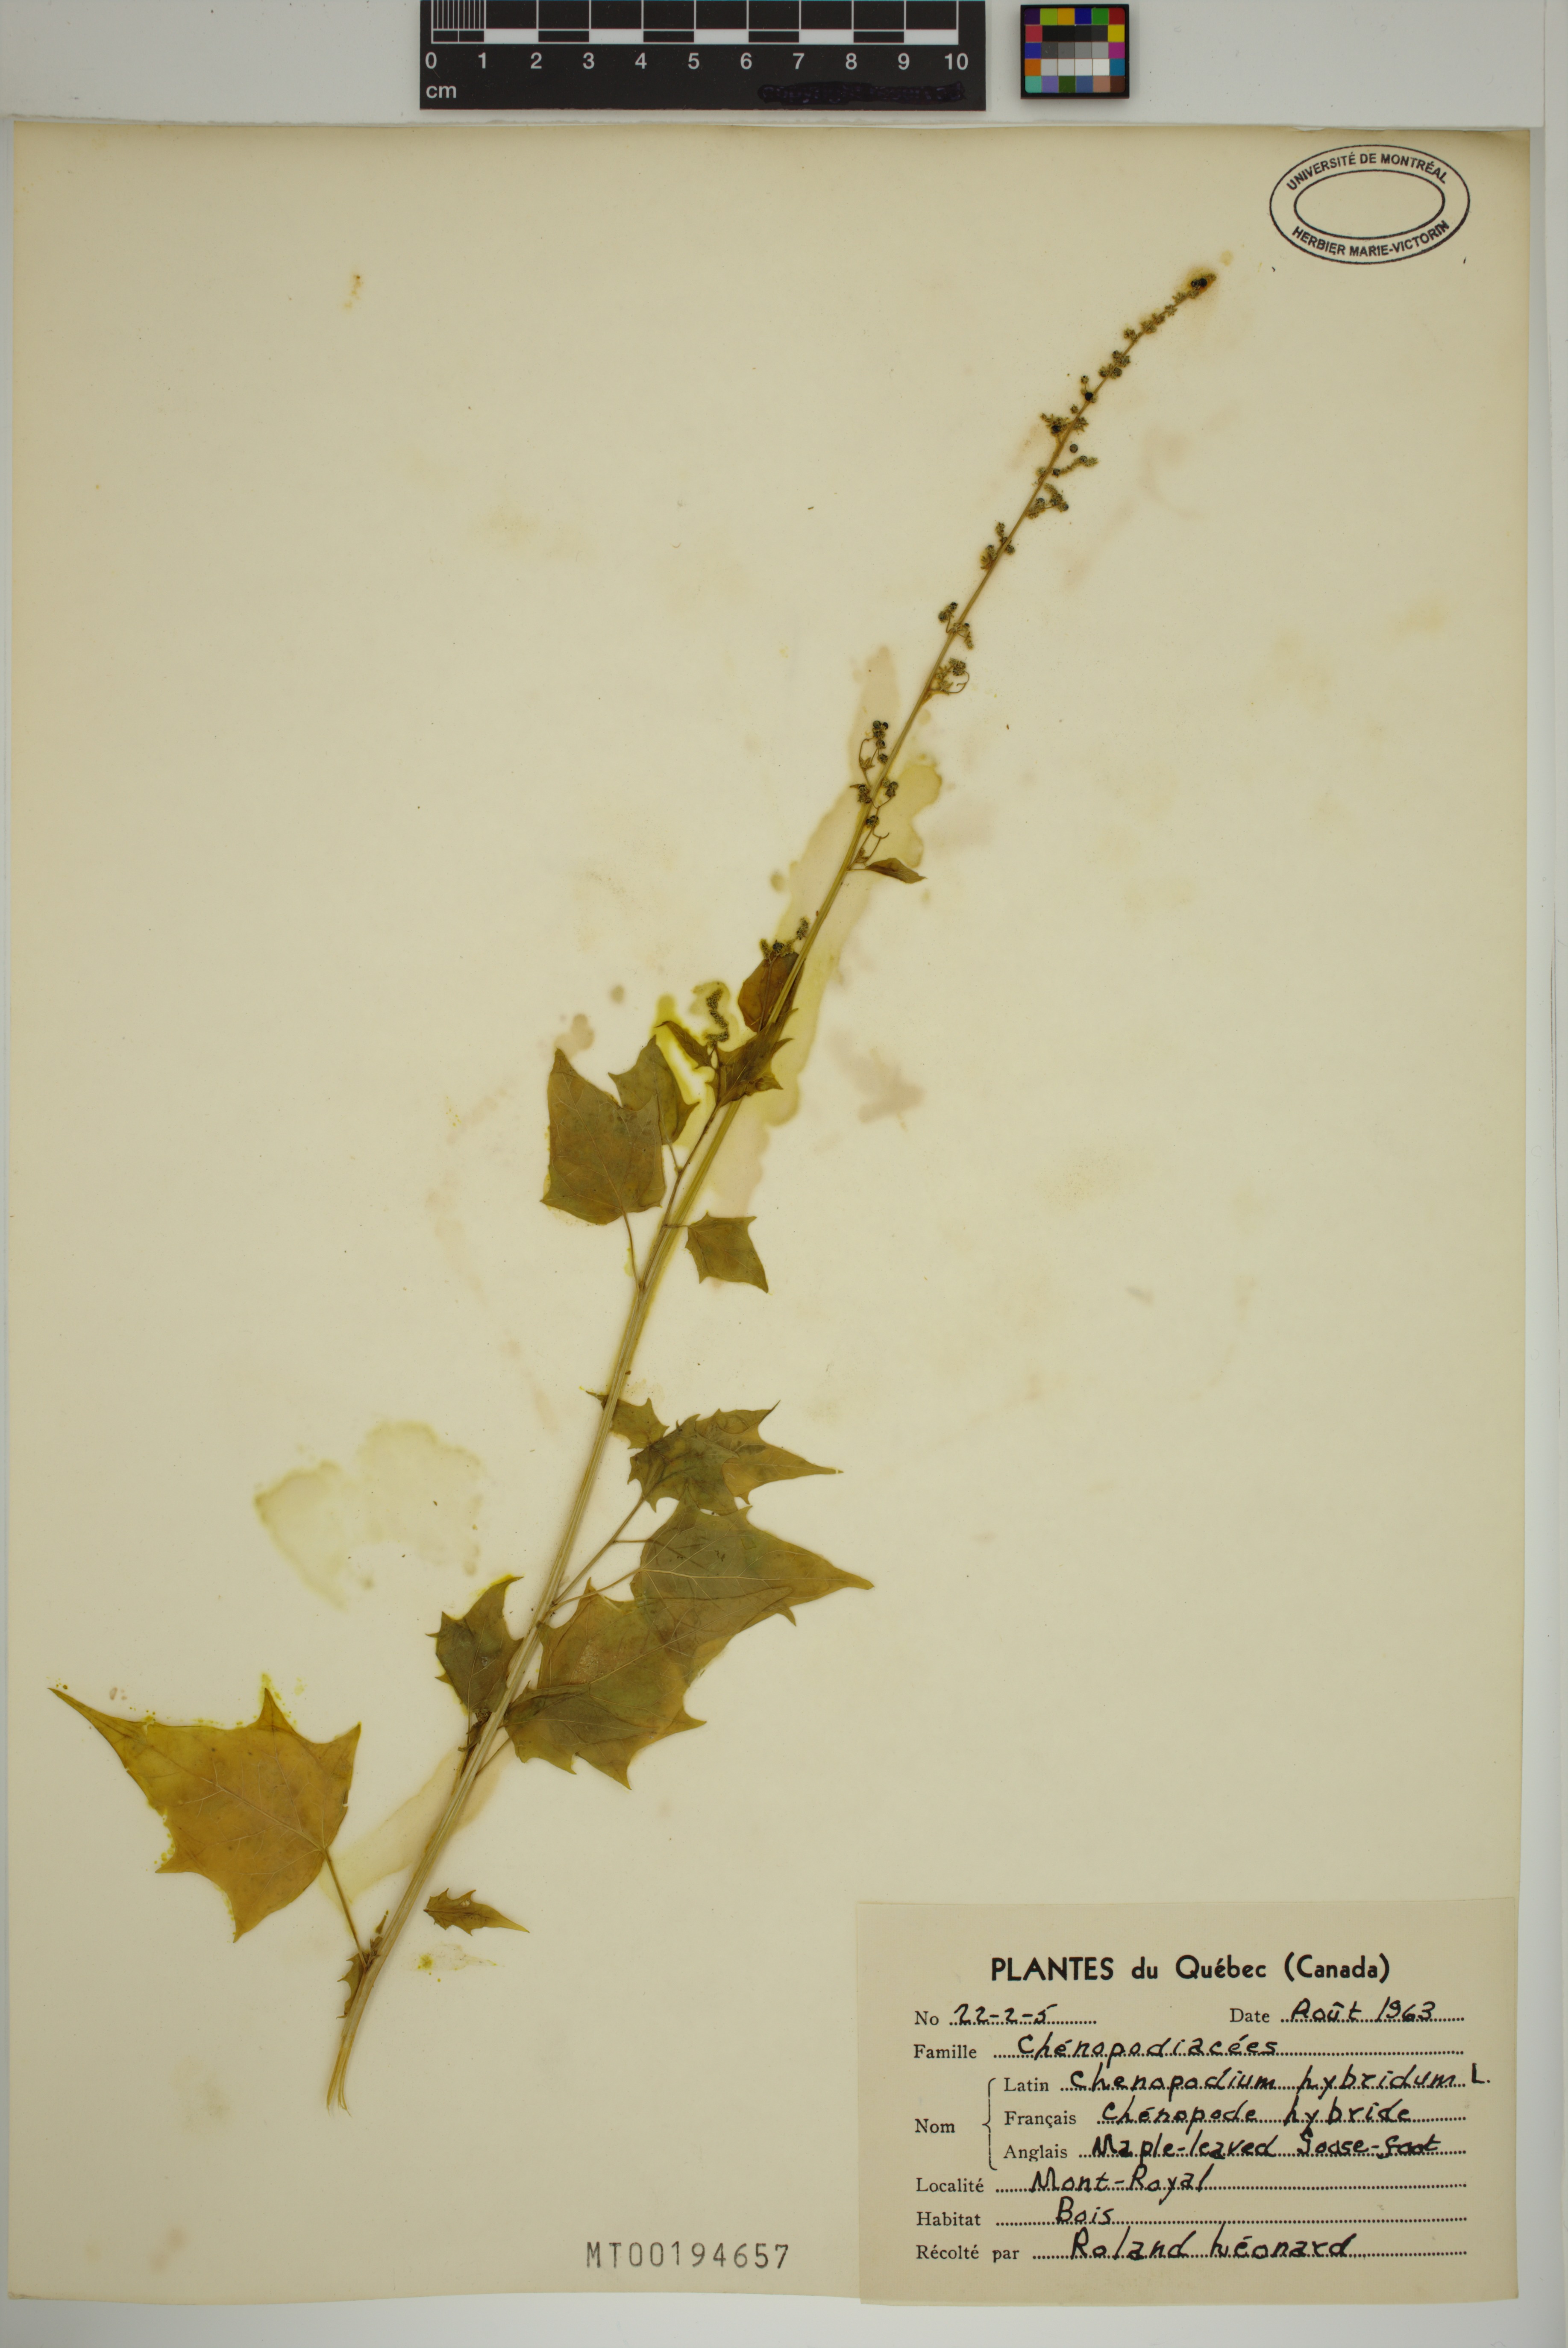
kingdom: Plantae
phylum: Tracheophyta
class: Magnoliopsida
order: Caryophyllales
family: Amaranthaceae
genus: Chenopodiastrum
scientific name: Chenopodiastrum hybridum
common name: Mapleleaf goosefoot
